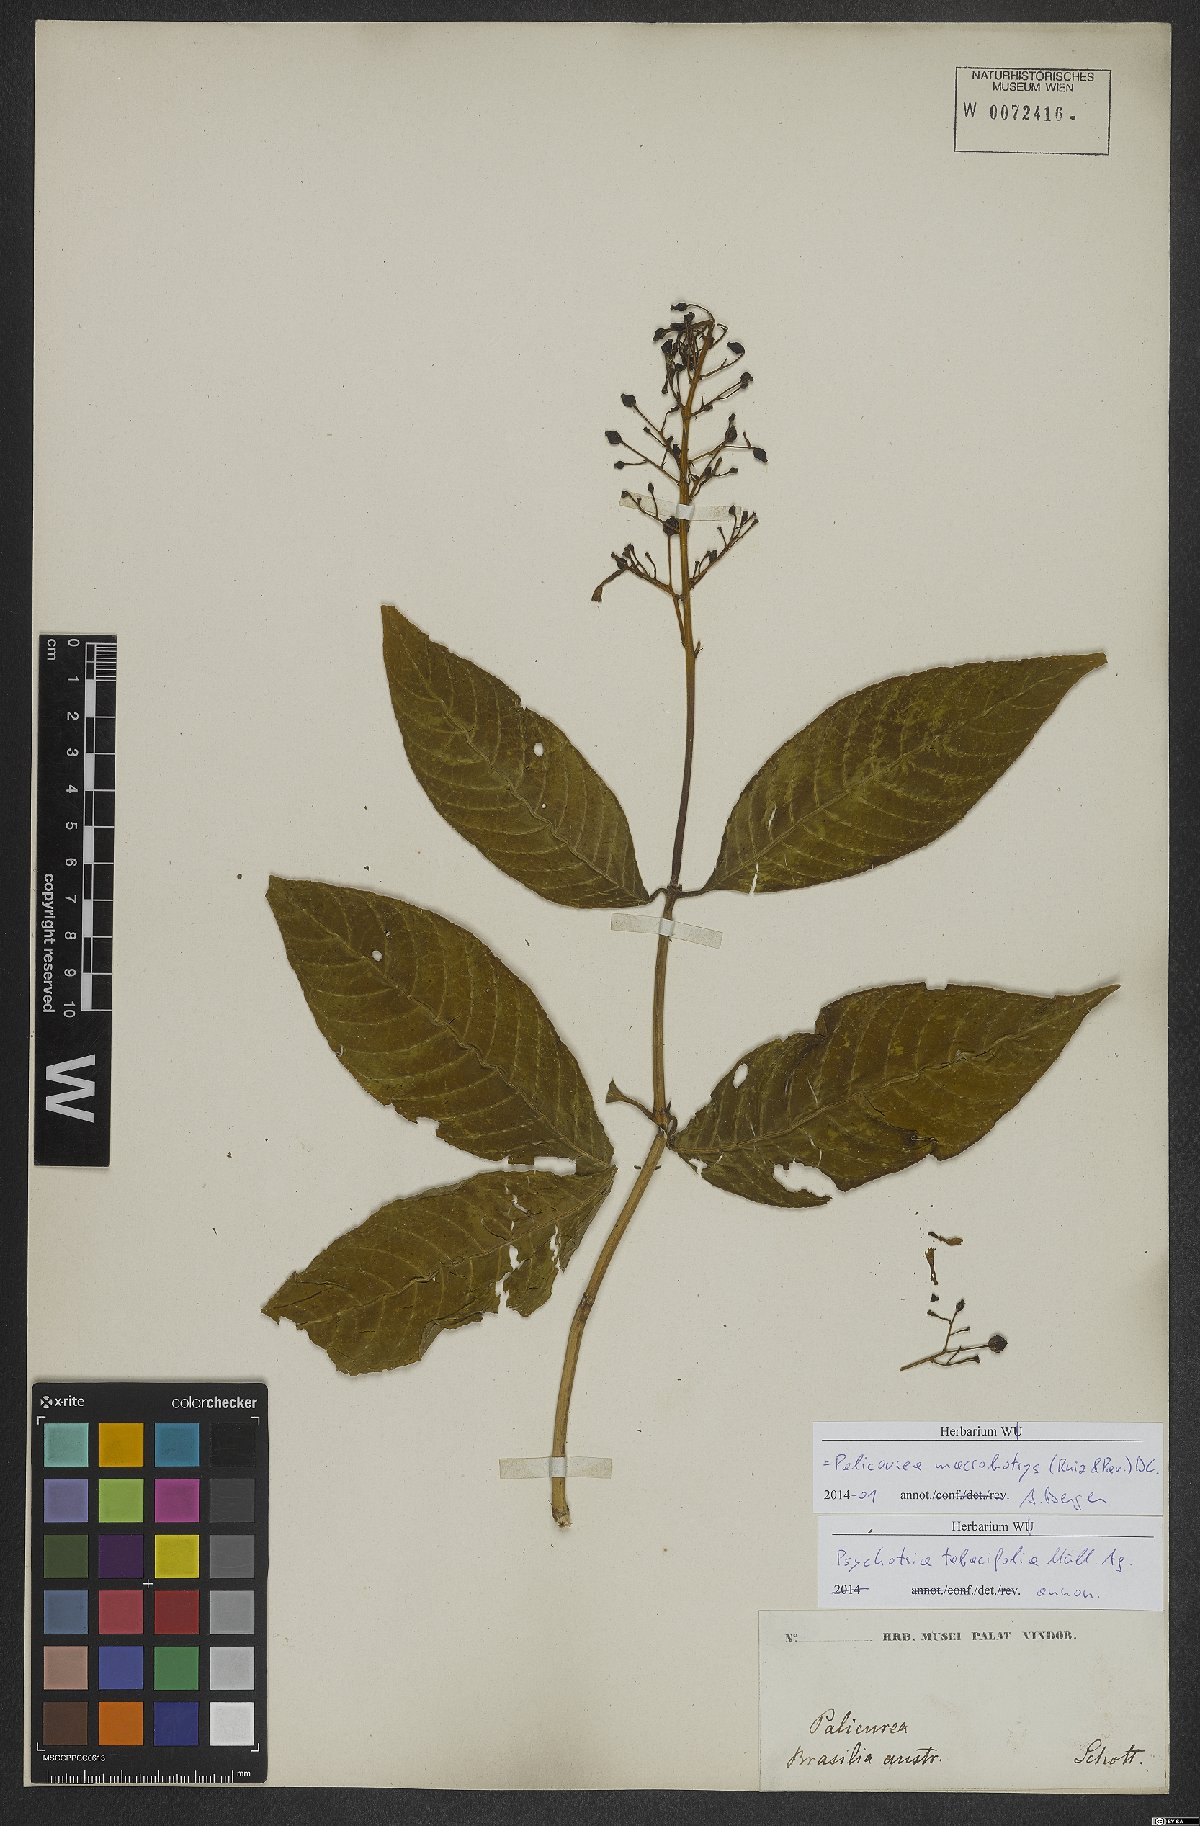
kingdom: Plantae
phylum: Tracheophyta
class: Magnoliopsida
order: Gentianales
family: Rubiaceae
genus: Palicourea
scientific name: Palicourea macrobotrys
